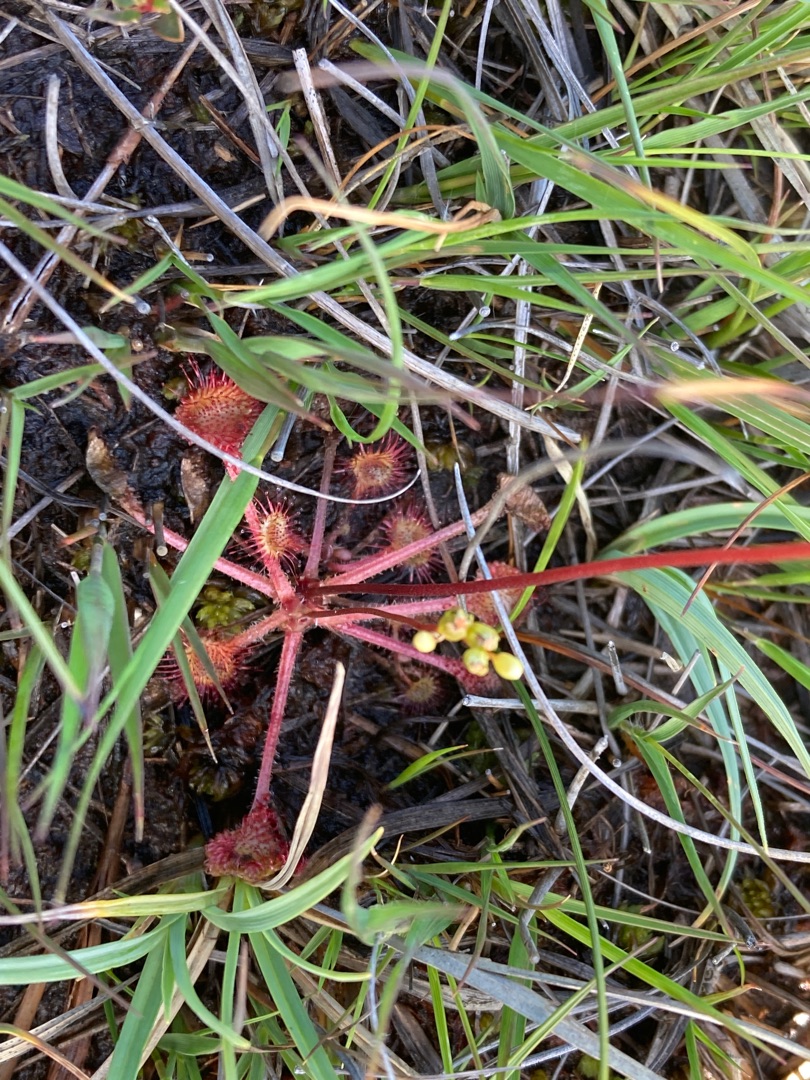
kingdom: Plantae
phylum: Tracheophyta
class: Magnoliopsida
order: Caryophyllales
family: Droseraceae
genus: Drosera
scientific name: Drosera rotundifolia
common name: Rundbladet soldug
